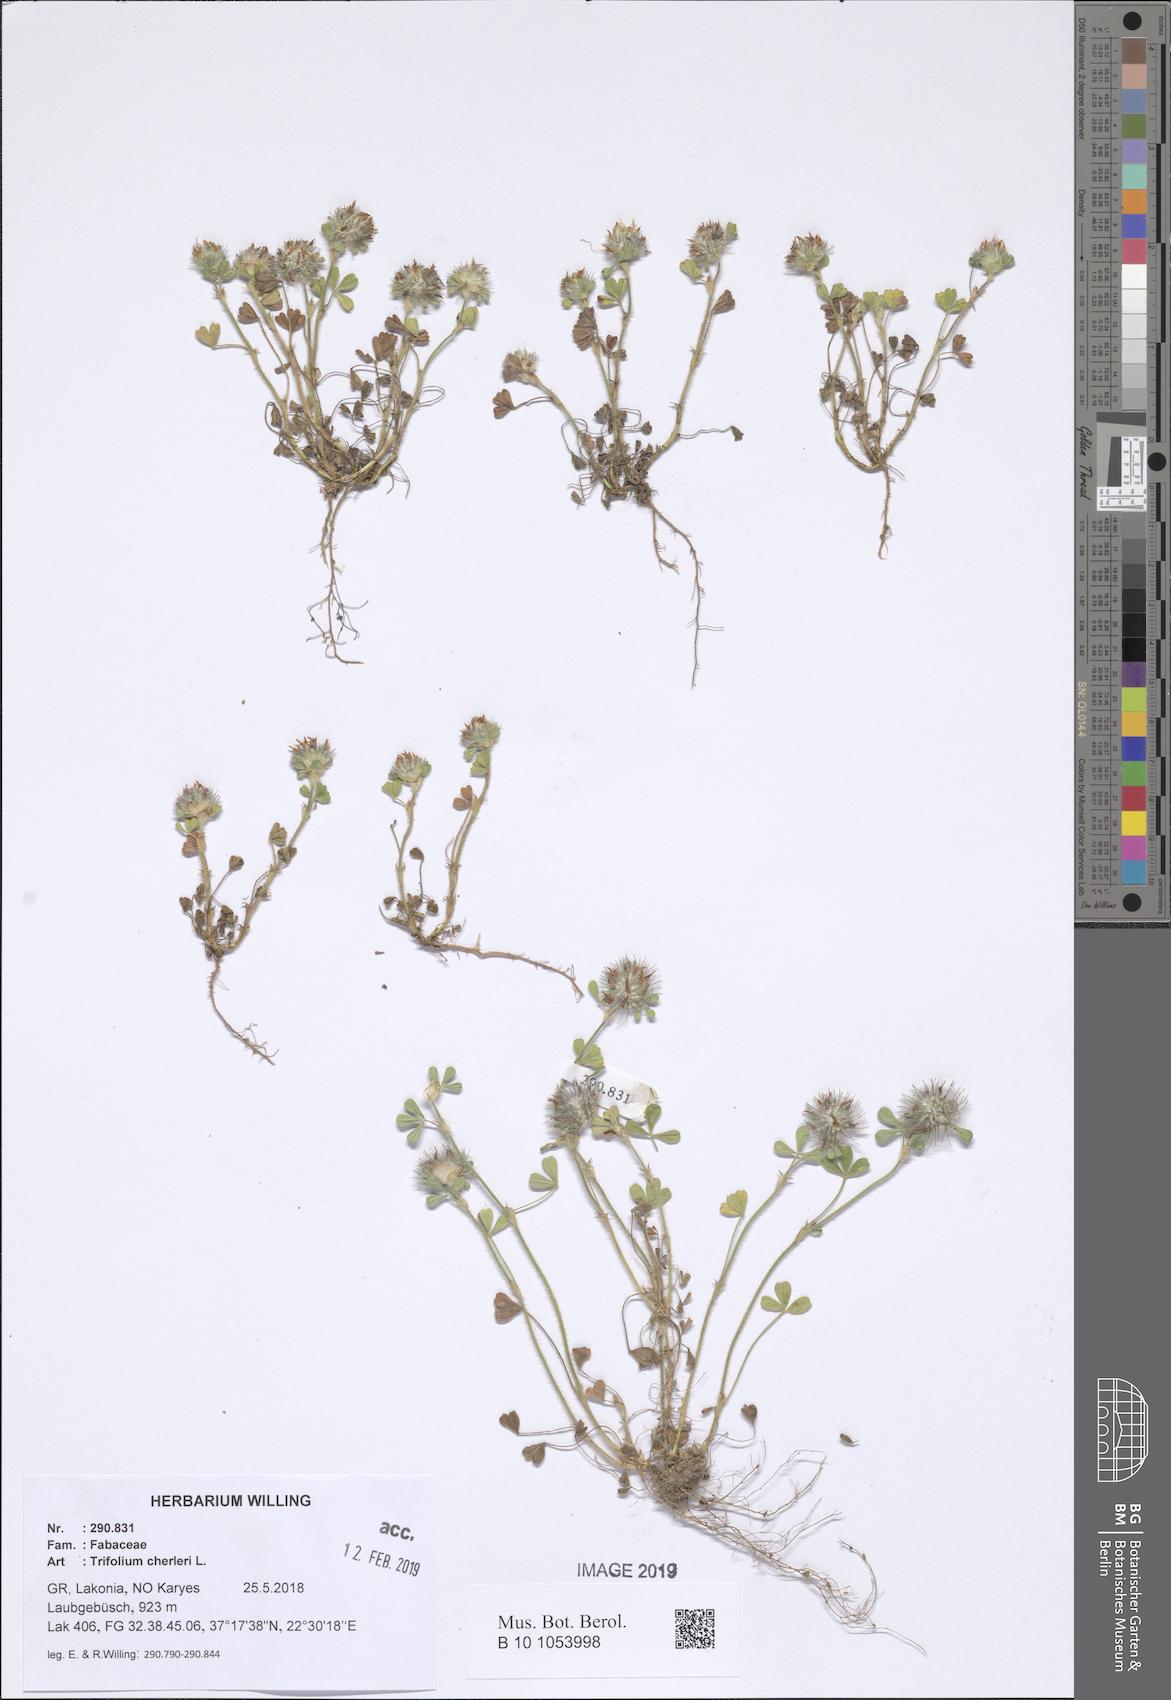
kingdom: Plantae
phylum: Tracheophyta
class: Magnoliopsida
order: Fabales
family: Fabaceae
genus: Trifolium
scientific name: Trifolium cherleri
